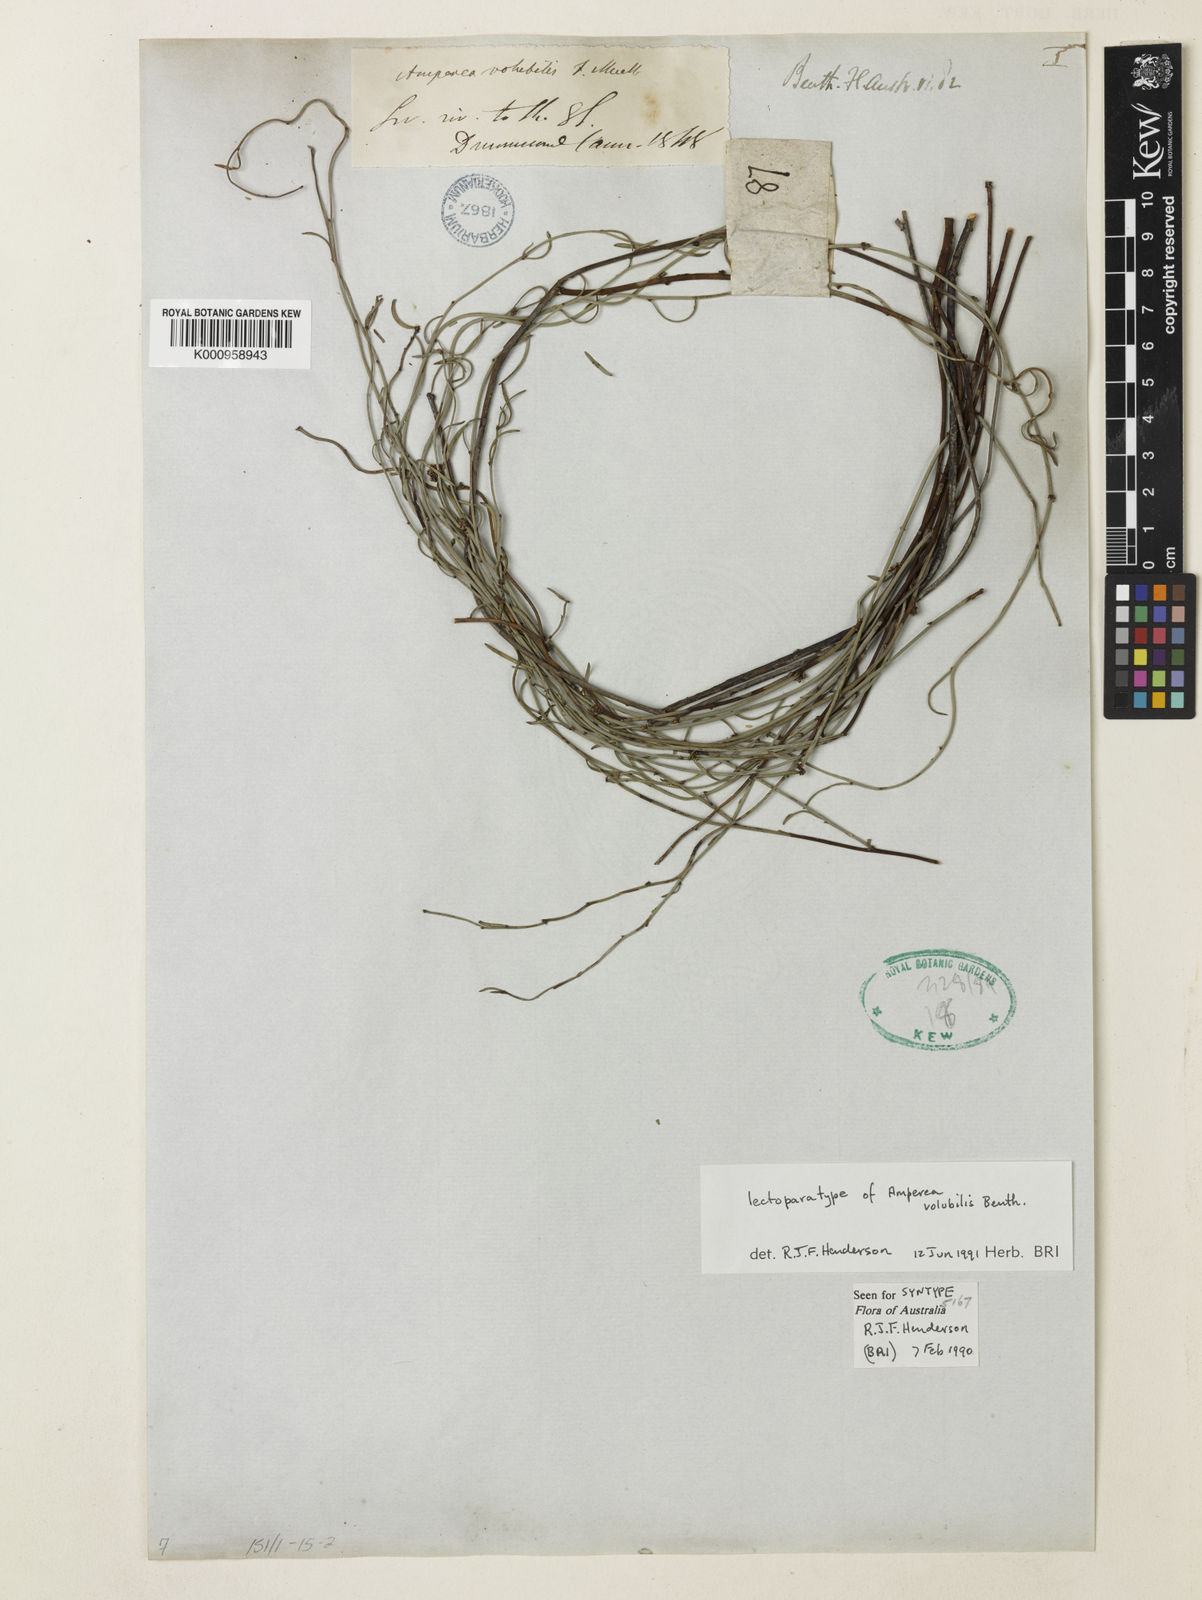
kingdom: Plantae
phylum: Tracheophyta
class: Magnoliopsida
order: Malpighiales
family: Euphorbiaceae
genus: Amperea
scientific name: Amperea volubilis
